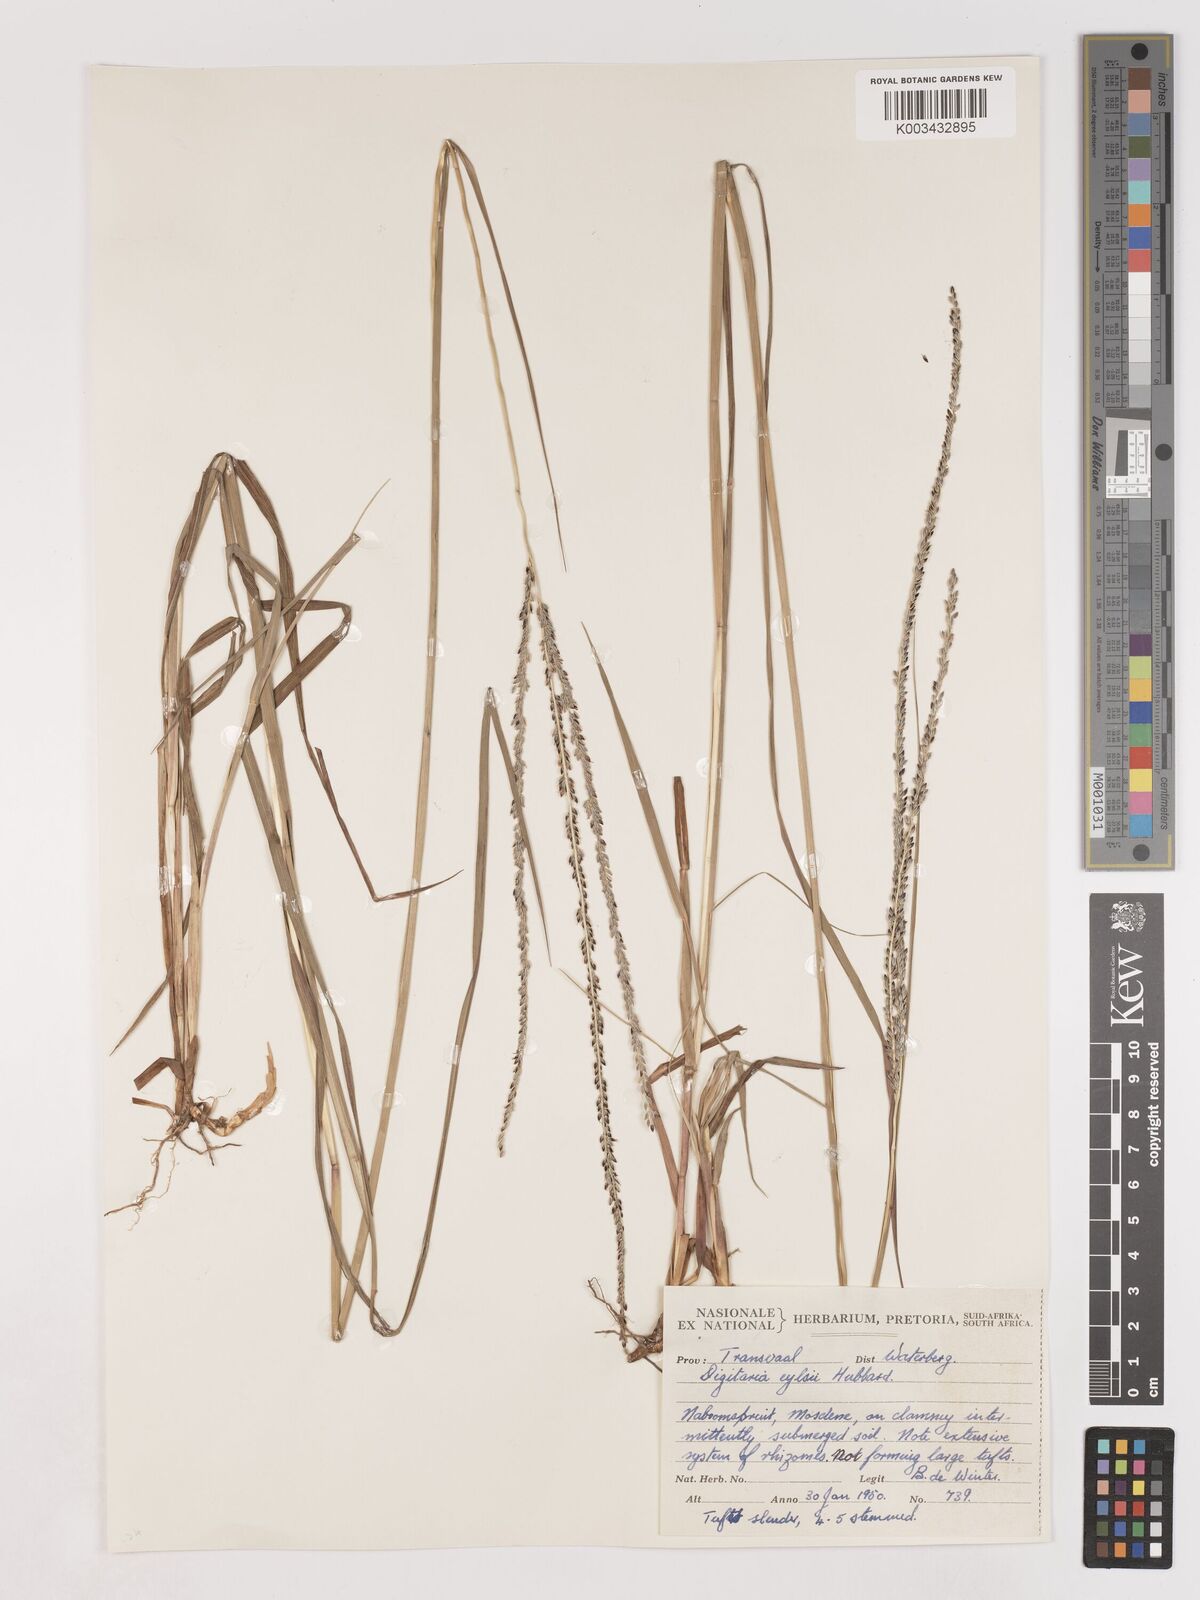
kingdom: Plantae
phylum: Tracheophyta
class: Liliopsida
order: Poales
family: Poaceae
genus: Digitaria
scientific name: Digitaria eylesii
